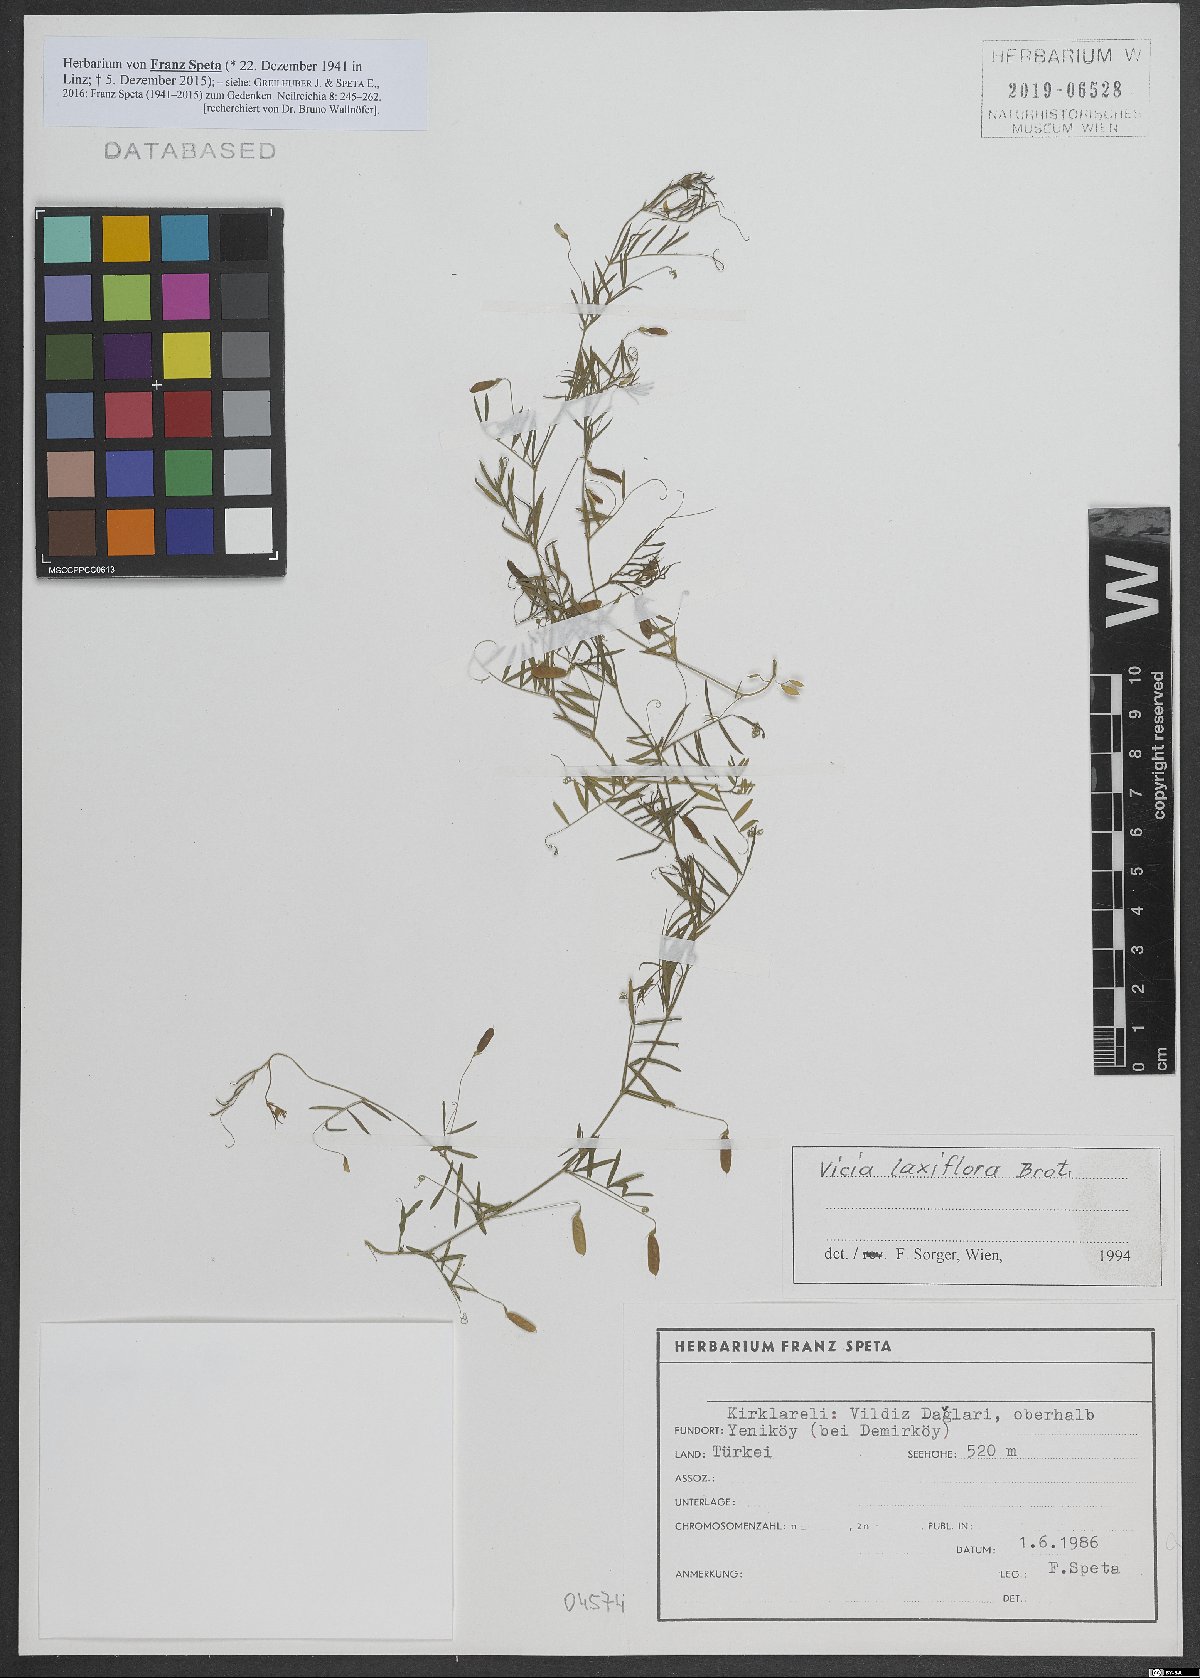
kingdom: Plantae
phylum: Tracheophyta
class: Magnoliopsida
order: Fabales
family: Fabaceae
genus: Vicia
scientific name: Vicia parviflora
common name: Slender tare
